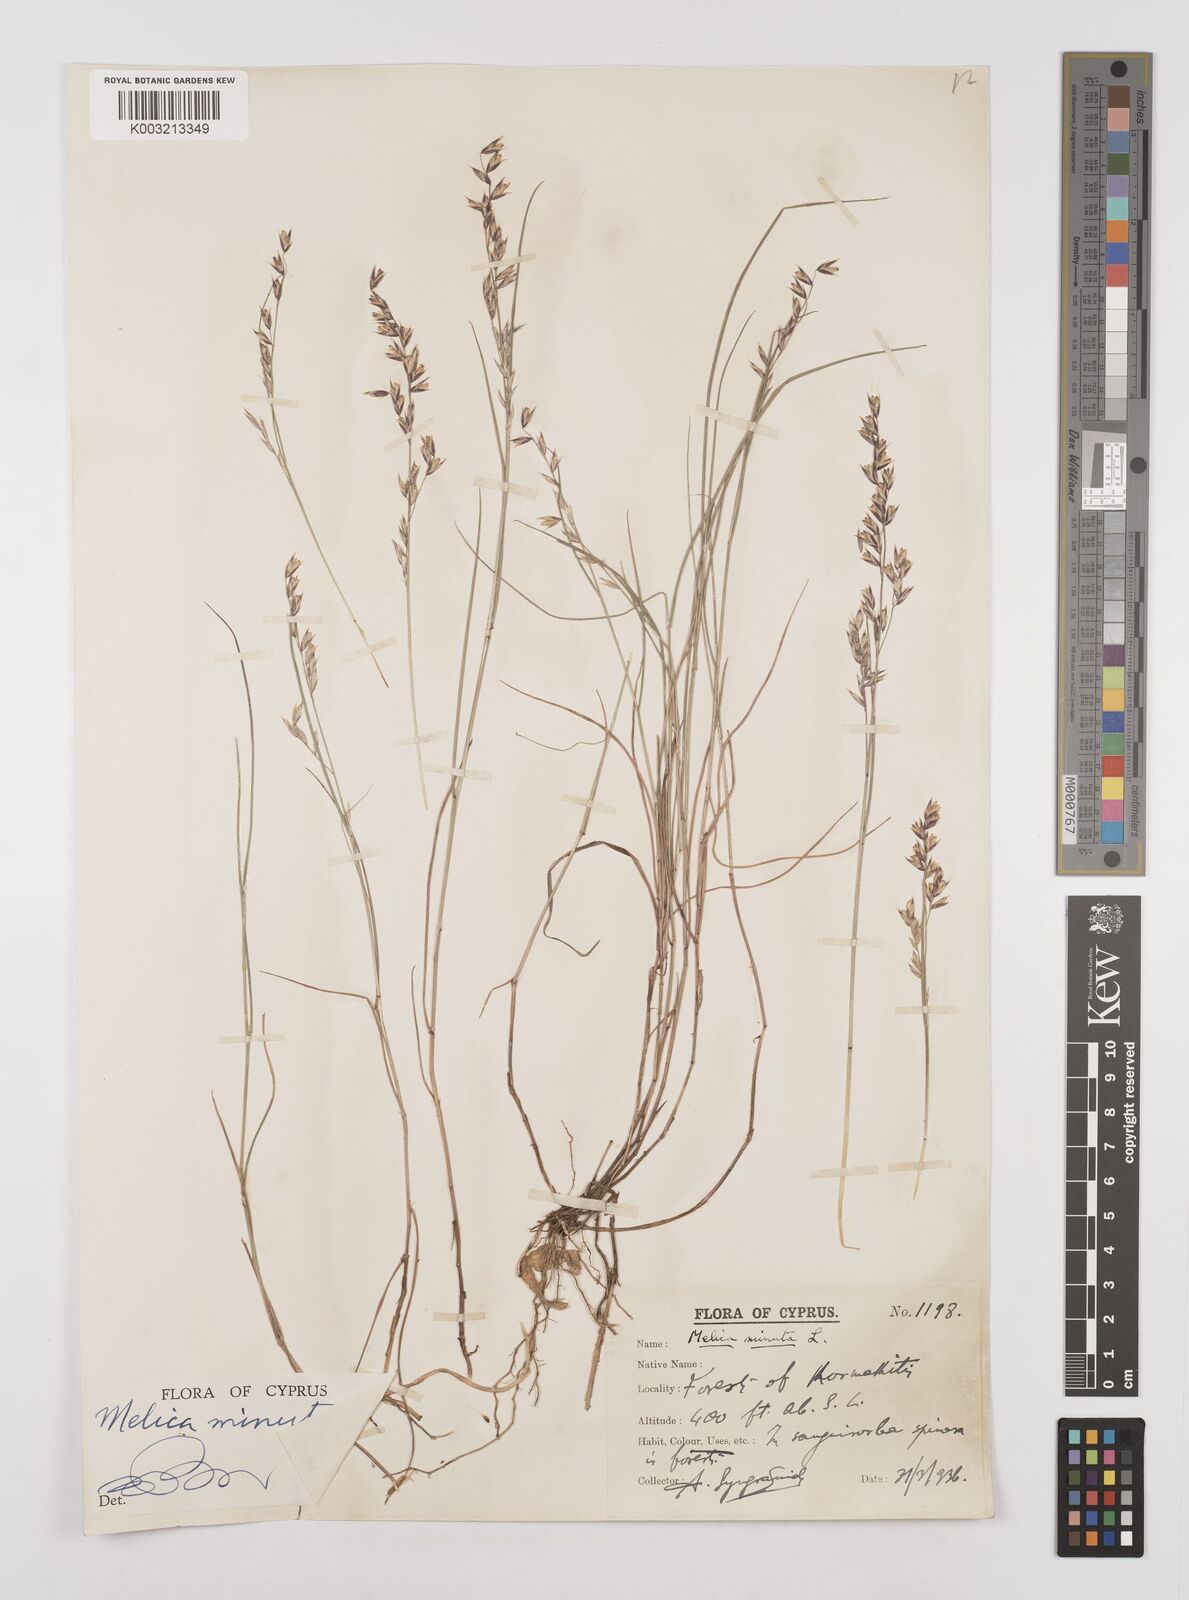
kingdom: Plantae
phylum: Tracheophyta
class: Liliopsida
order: Poales
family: Poaceae
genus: Melica
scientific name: Melica minuta
